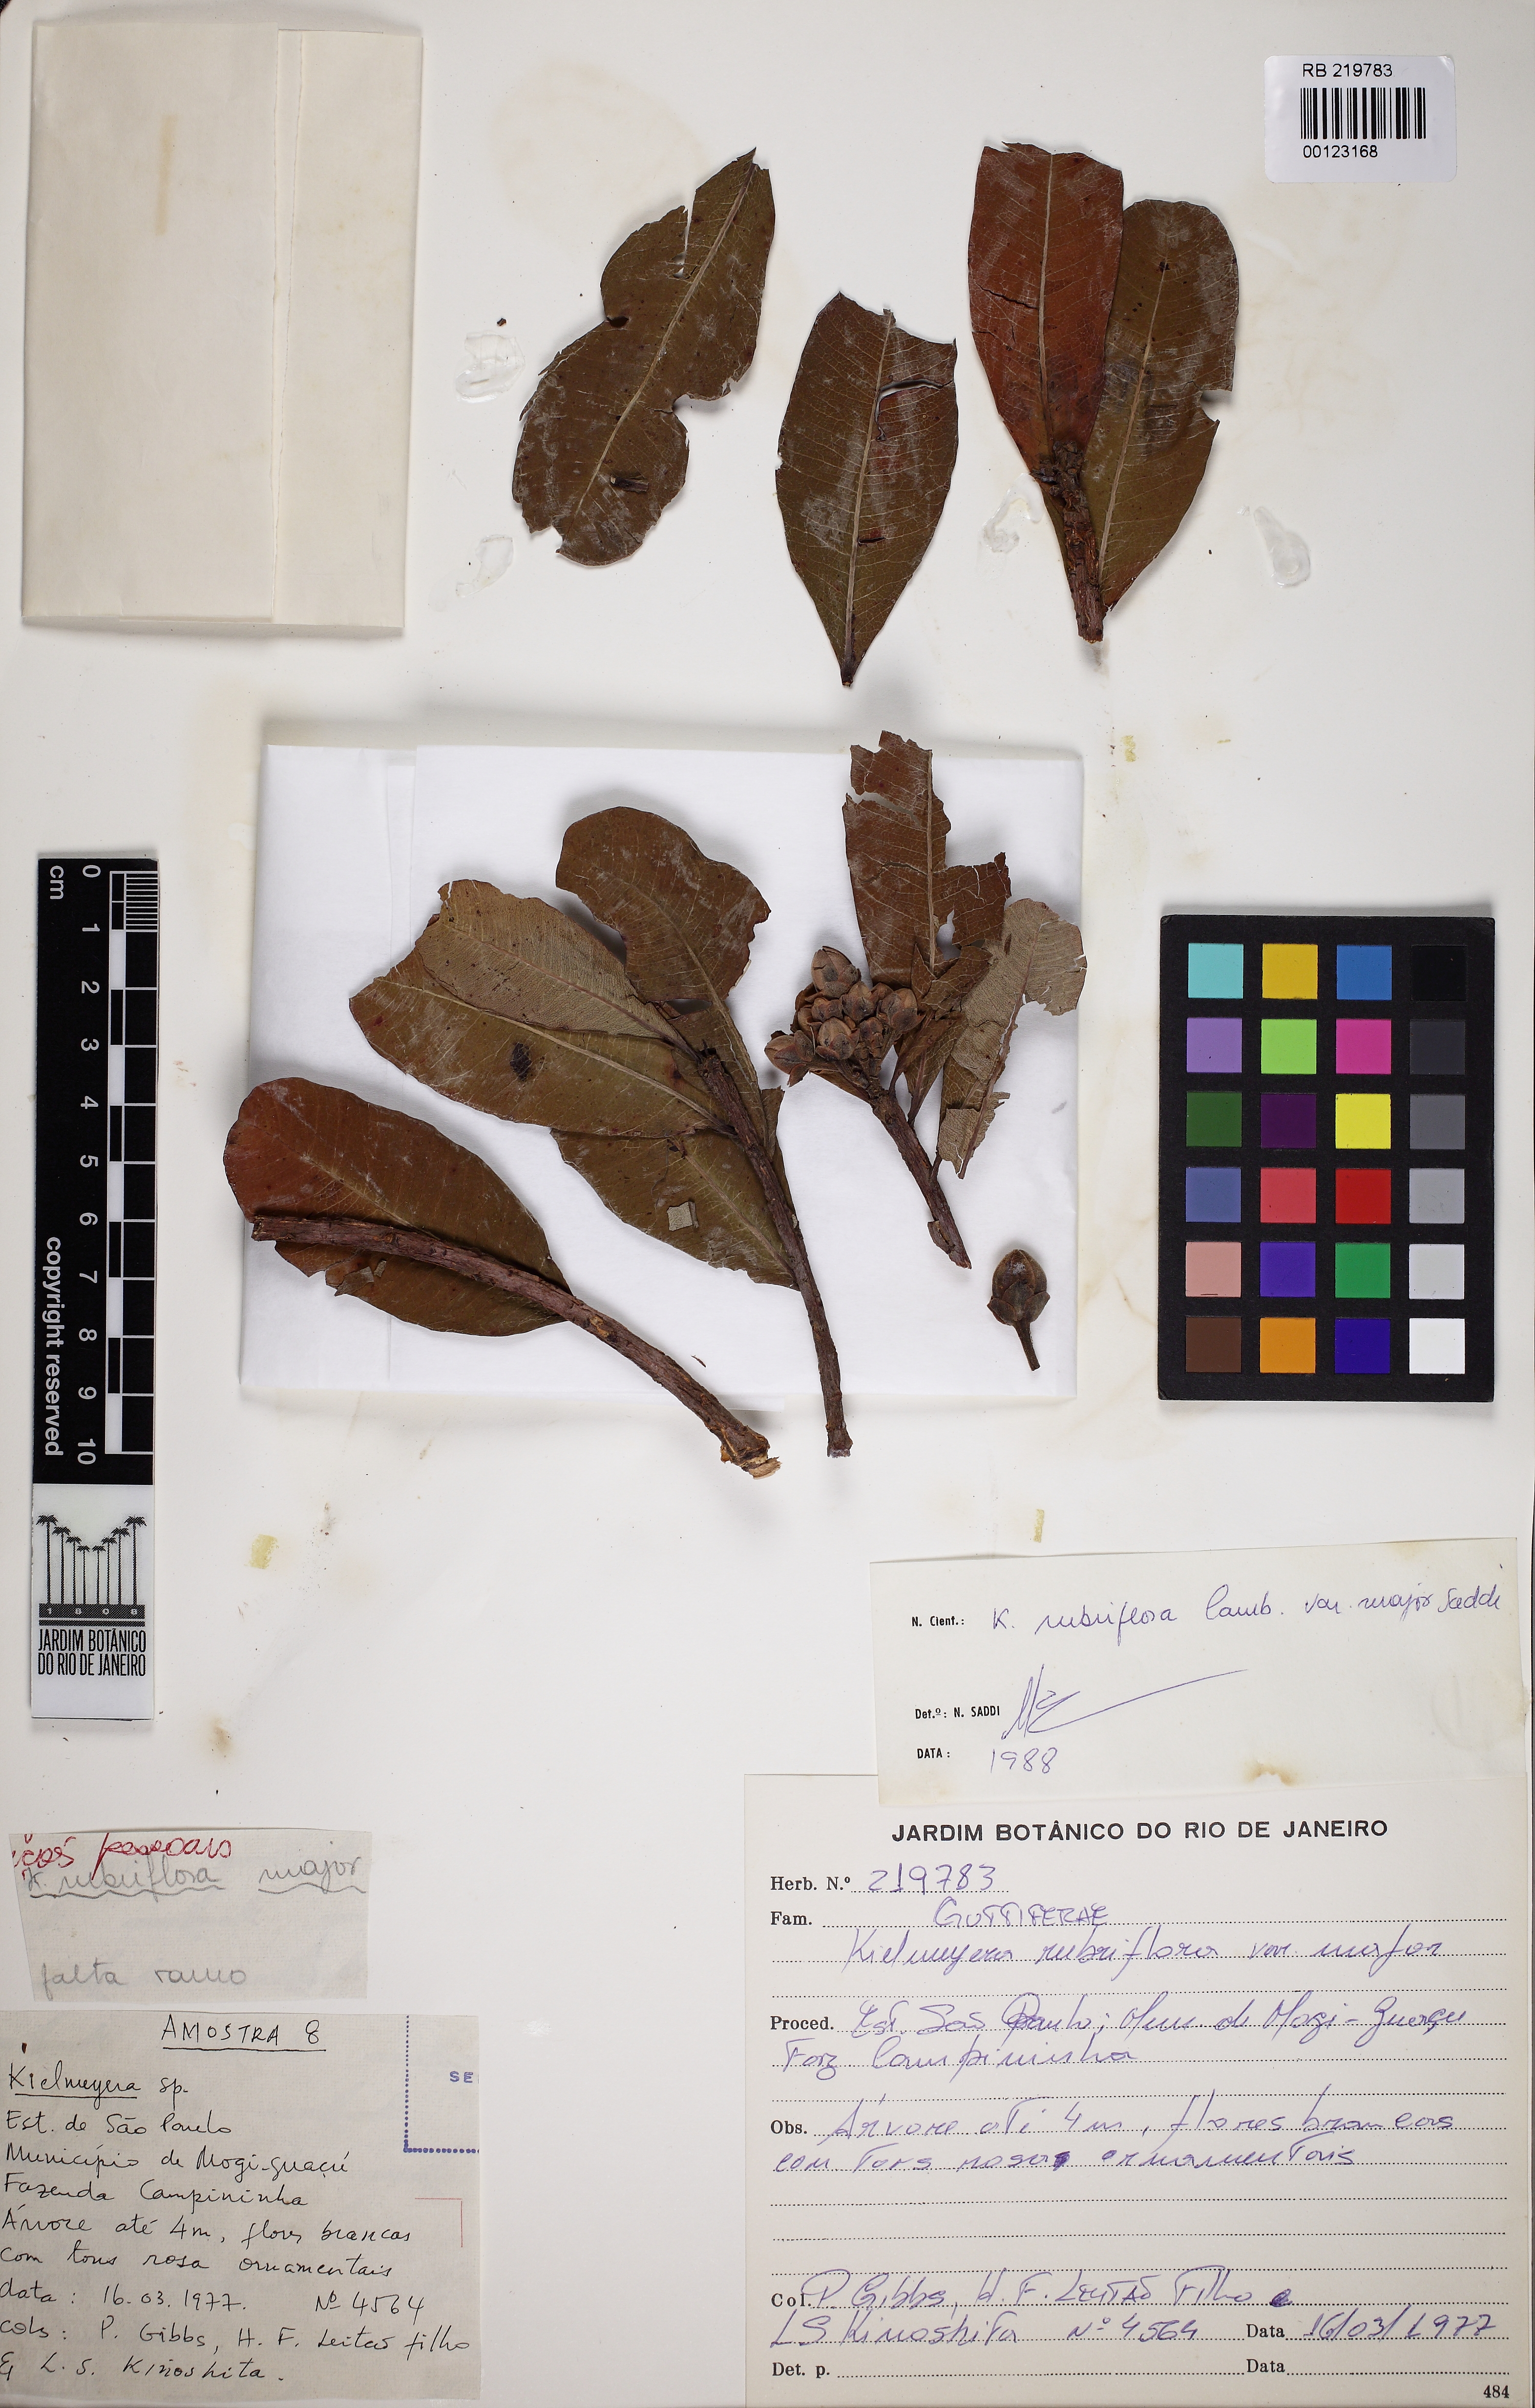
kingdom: Plantae
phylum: Tracheophyta
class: Magnoliopsida
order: Malpighiales
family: Calophyllaceae
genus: Kielmeyera
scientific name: Kielmeyera rubriflora
